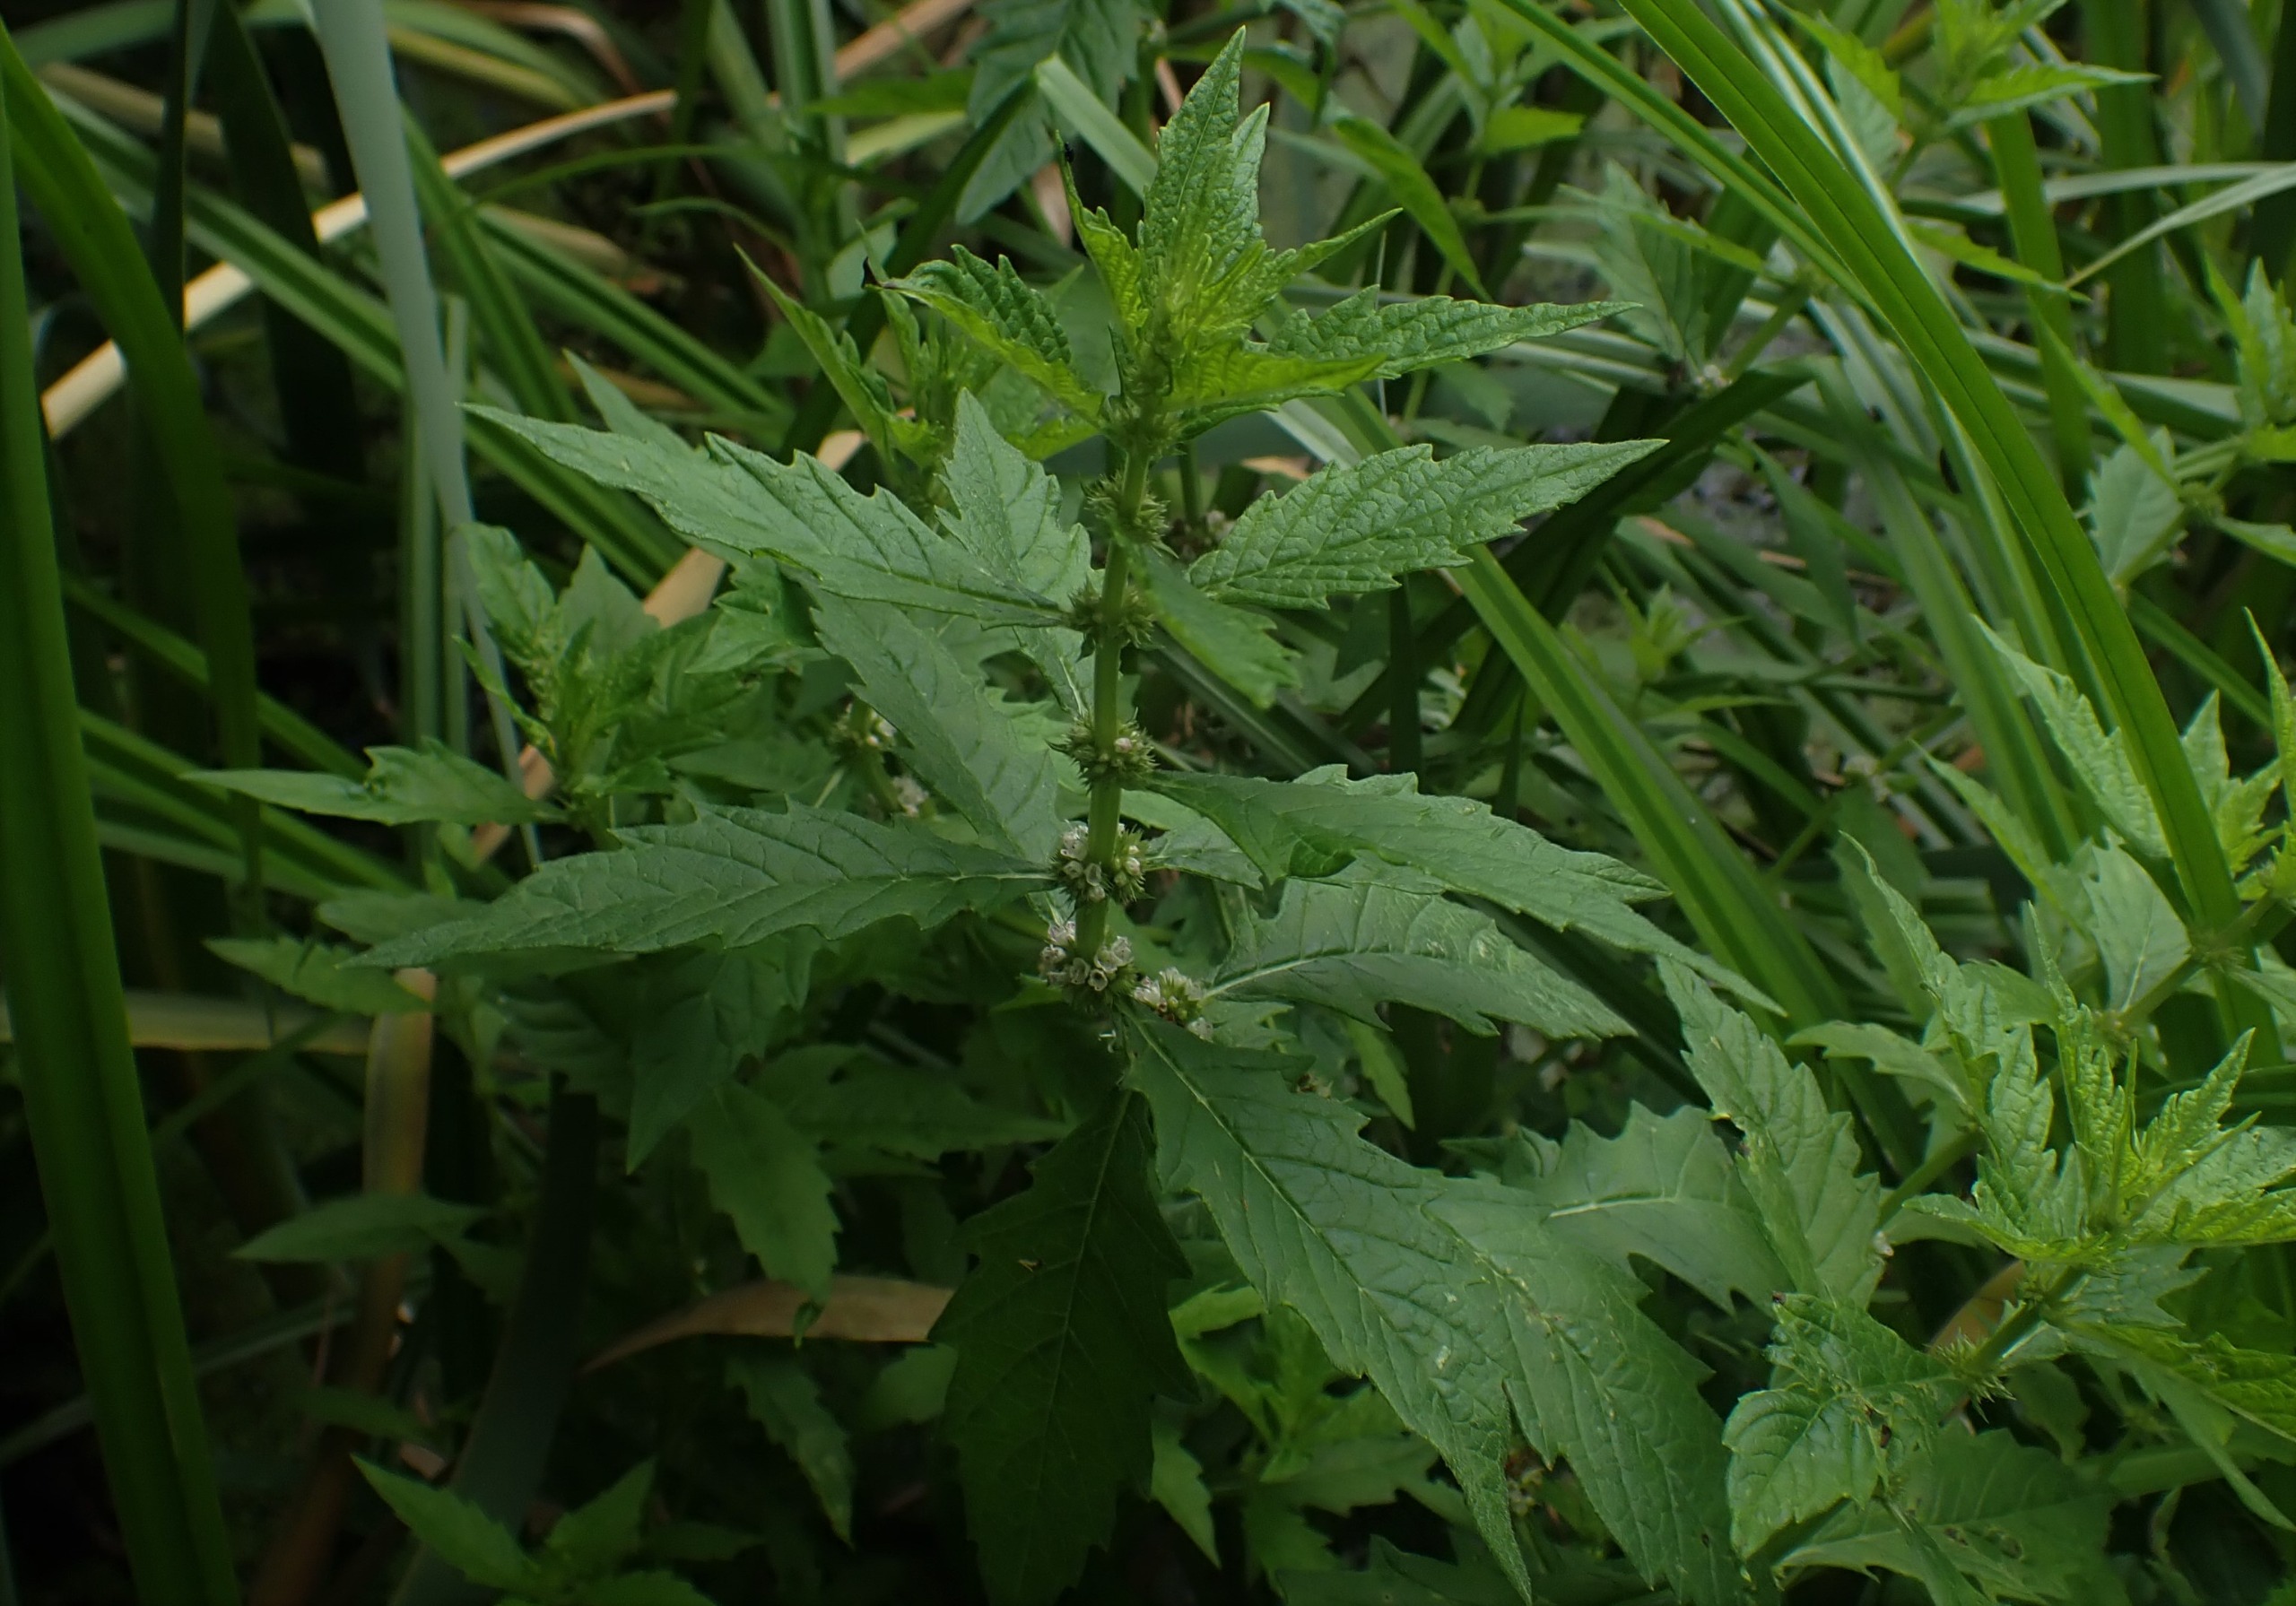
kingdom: Plantae
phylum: Tracheophyta
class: Magnoliopsida
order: Lamiales
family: Lamiaceae
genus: Lycopus
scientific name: Lycopus europaeus
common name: Sværtevæld
